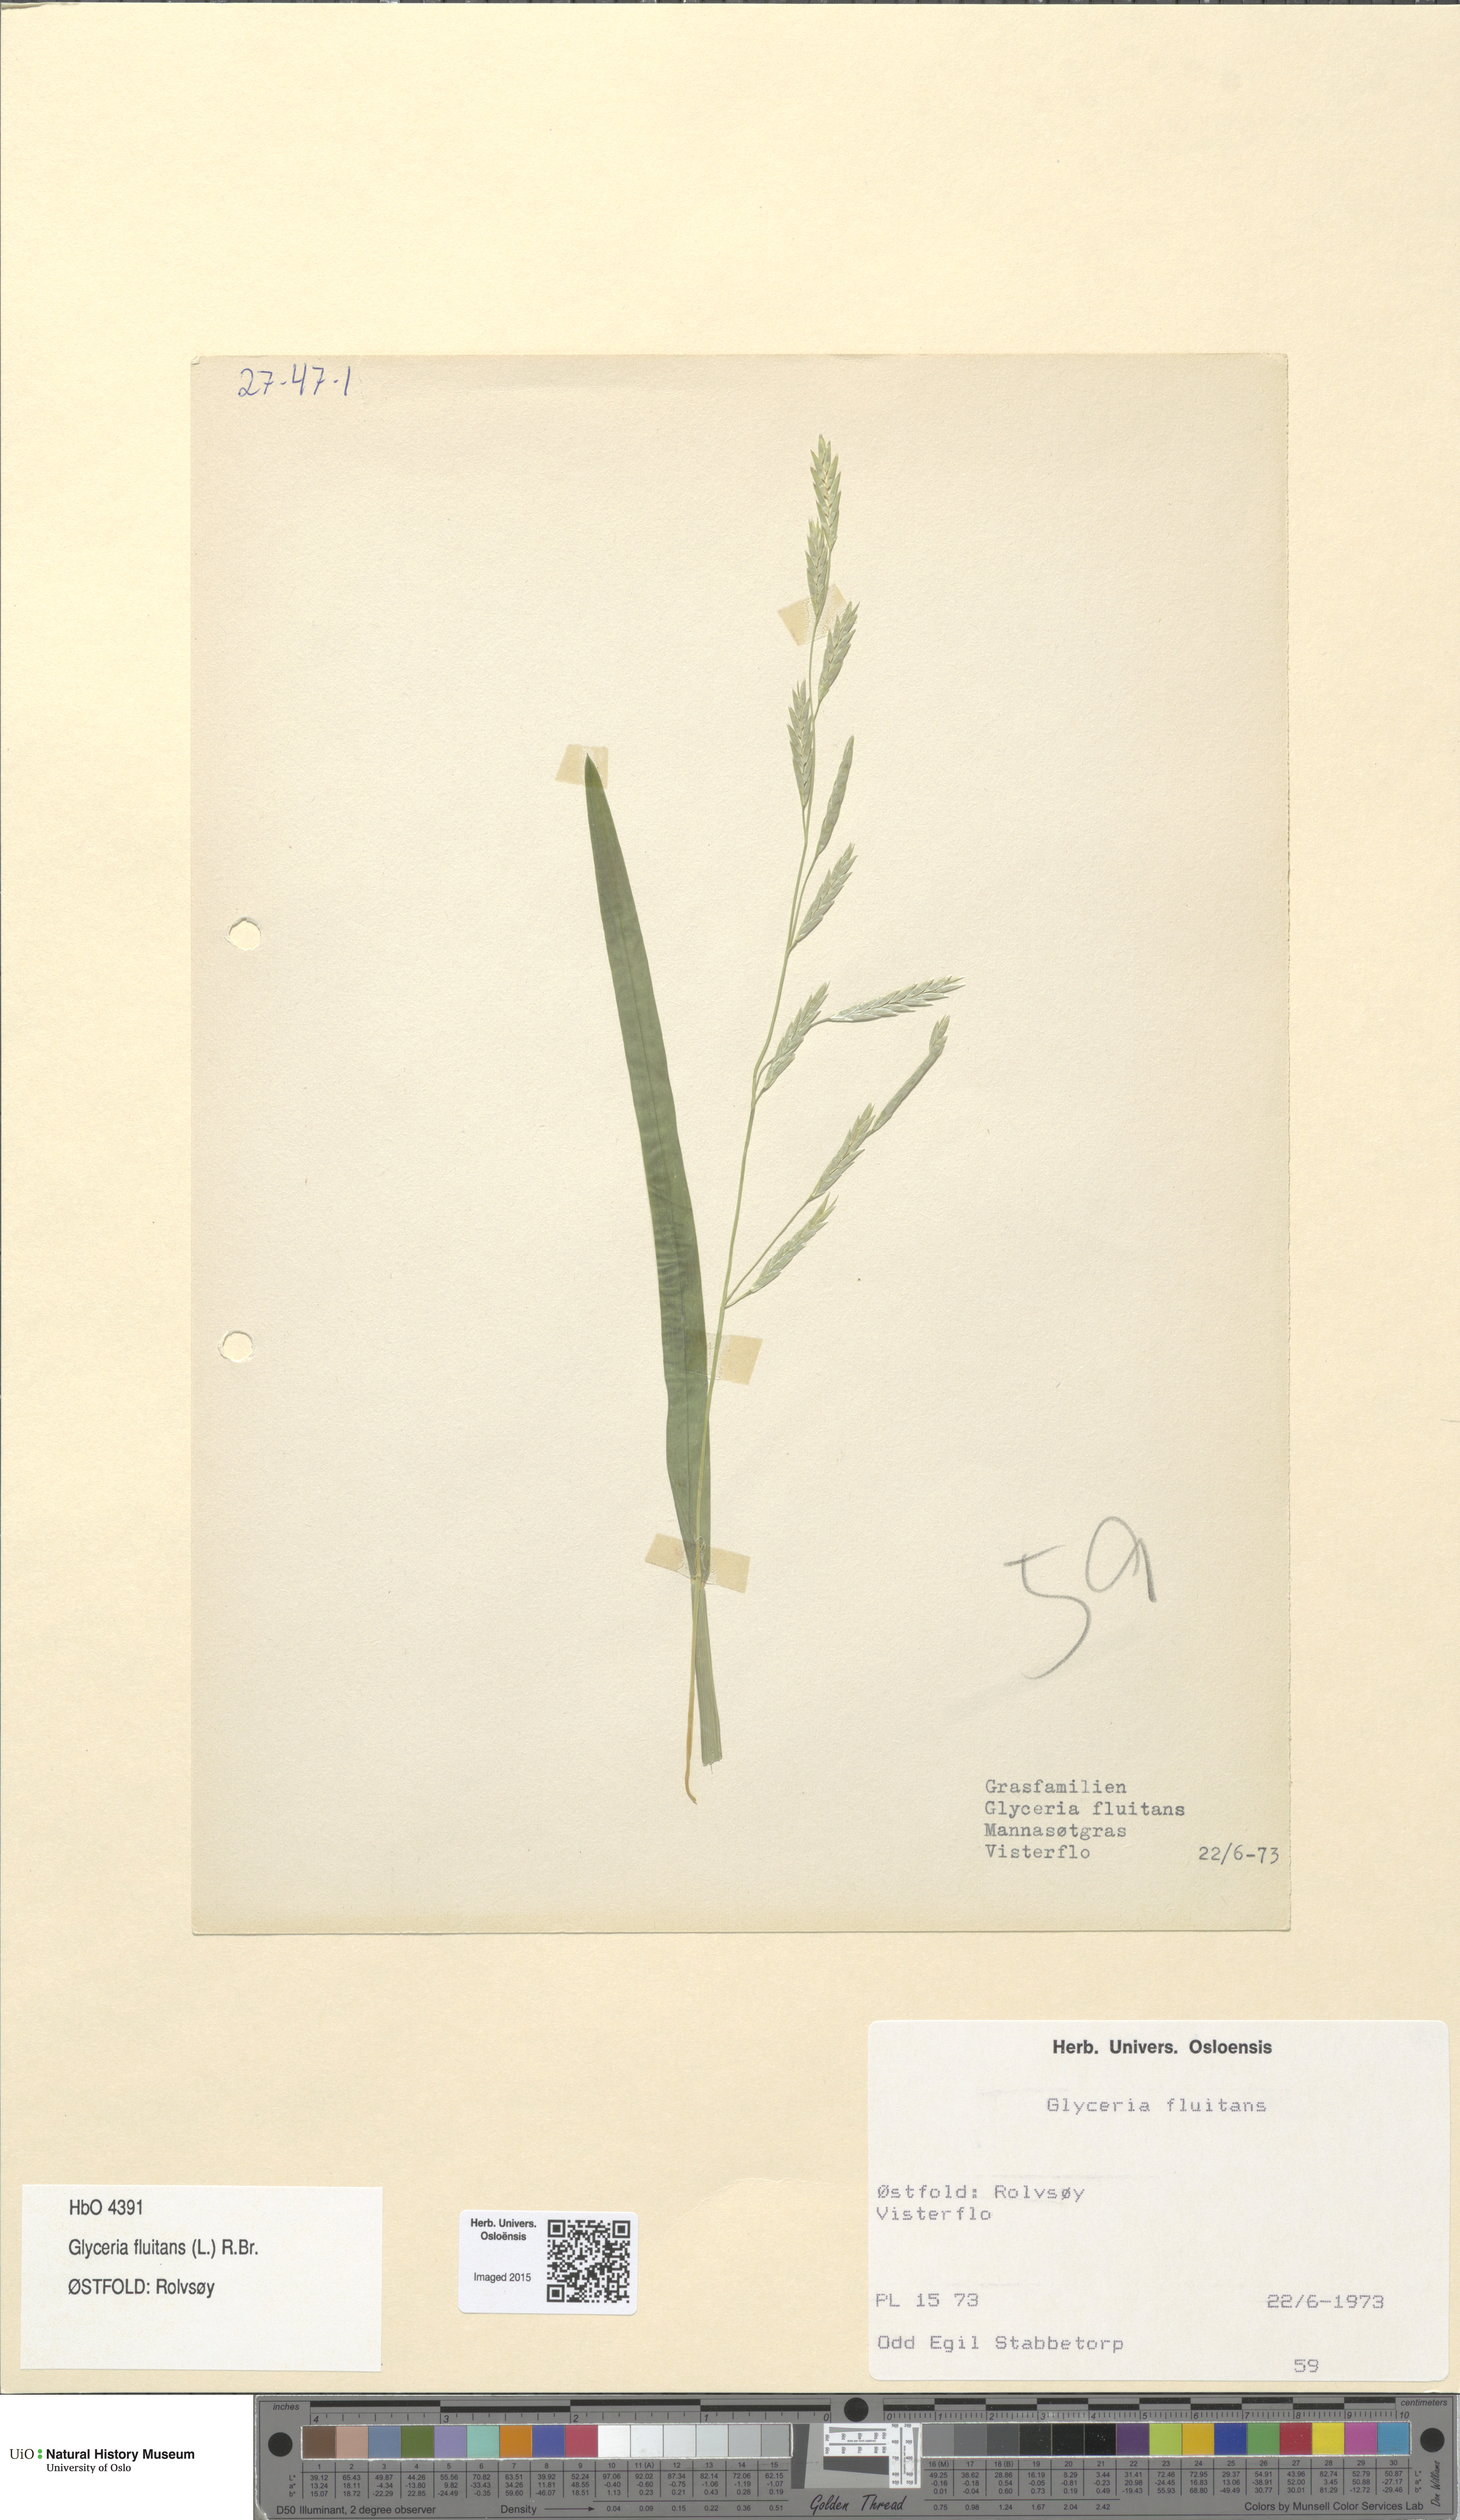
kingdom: Plantae
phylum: Tracheophyta
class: Liliopsida
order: Poales
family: Poaceae
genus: Glyceria
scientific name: Glyceria fluitans
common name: Floating sweet-grass
